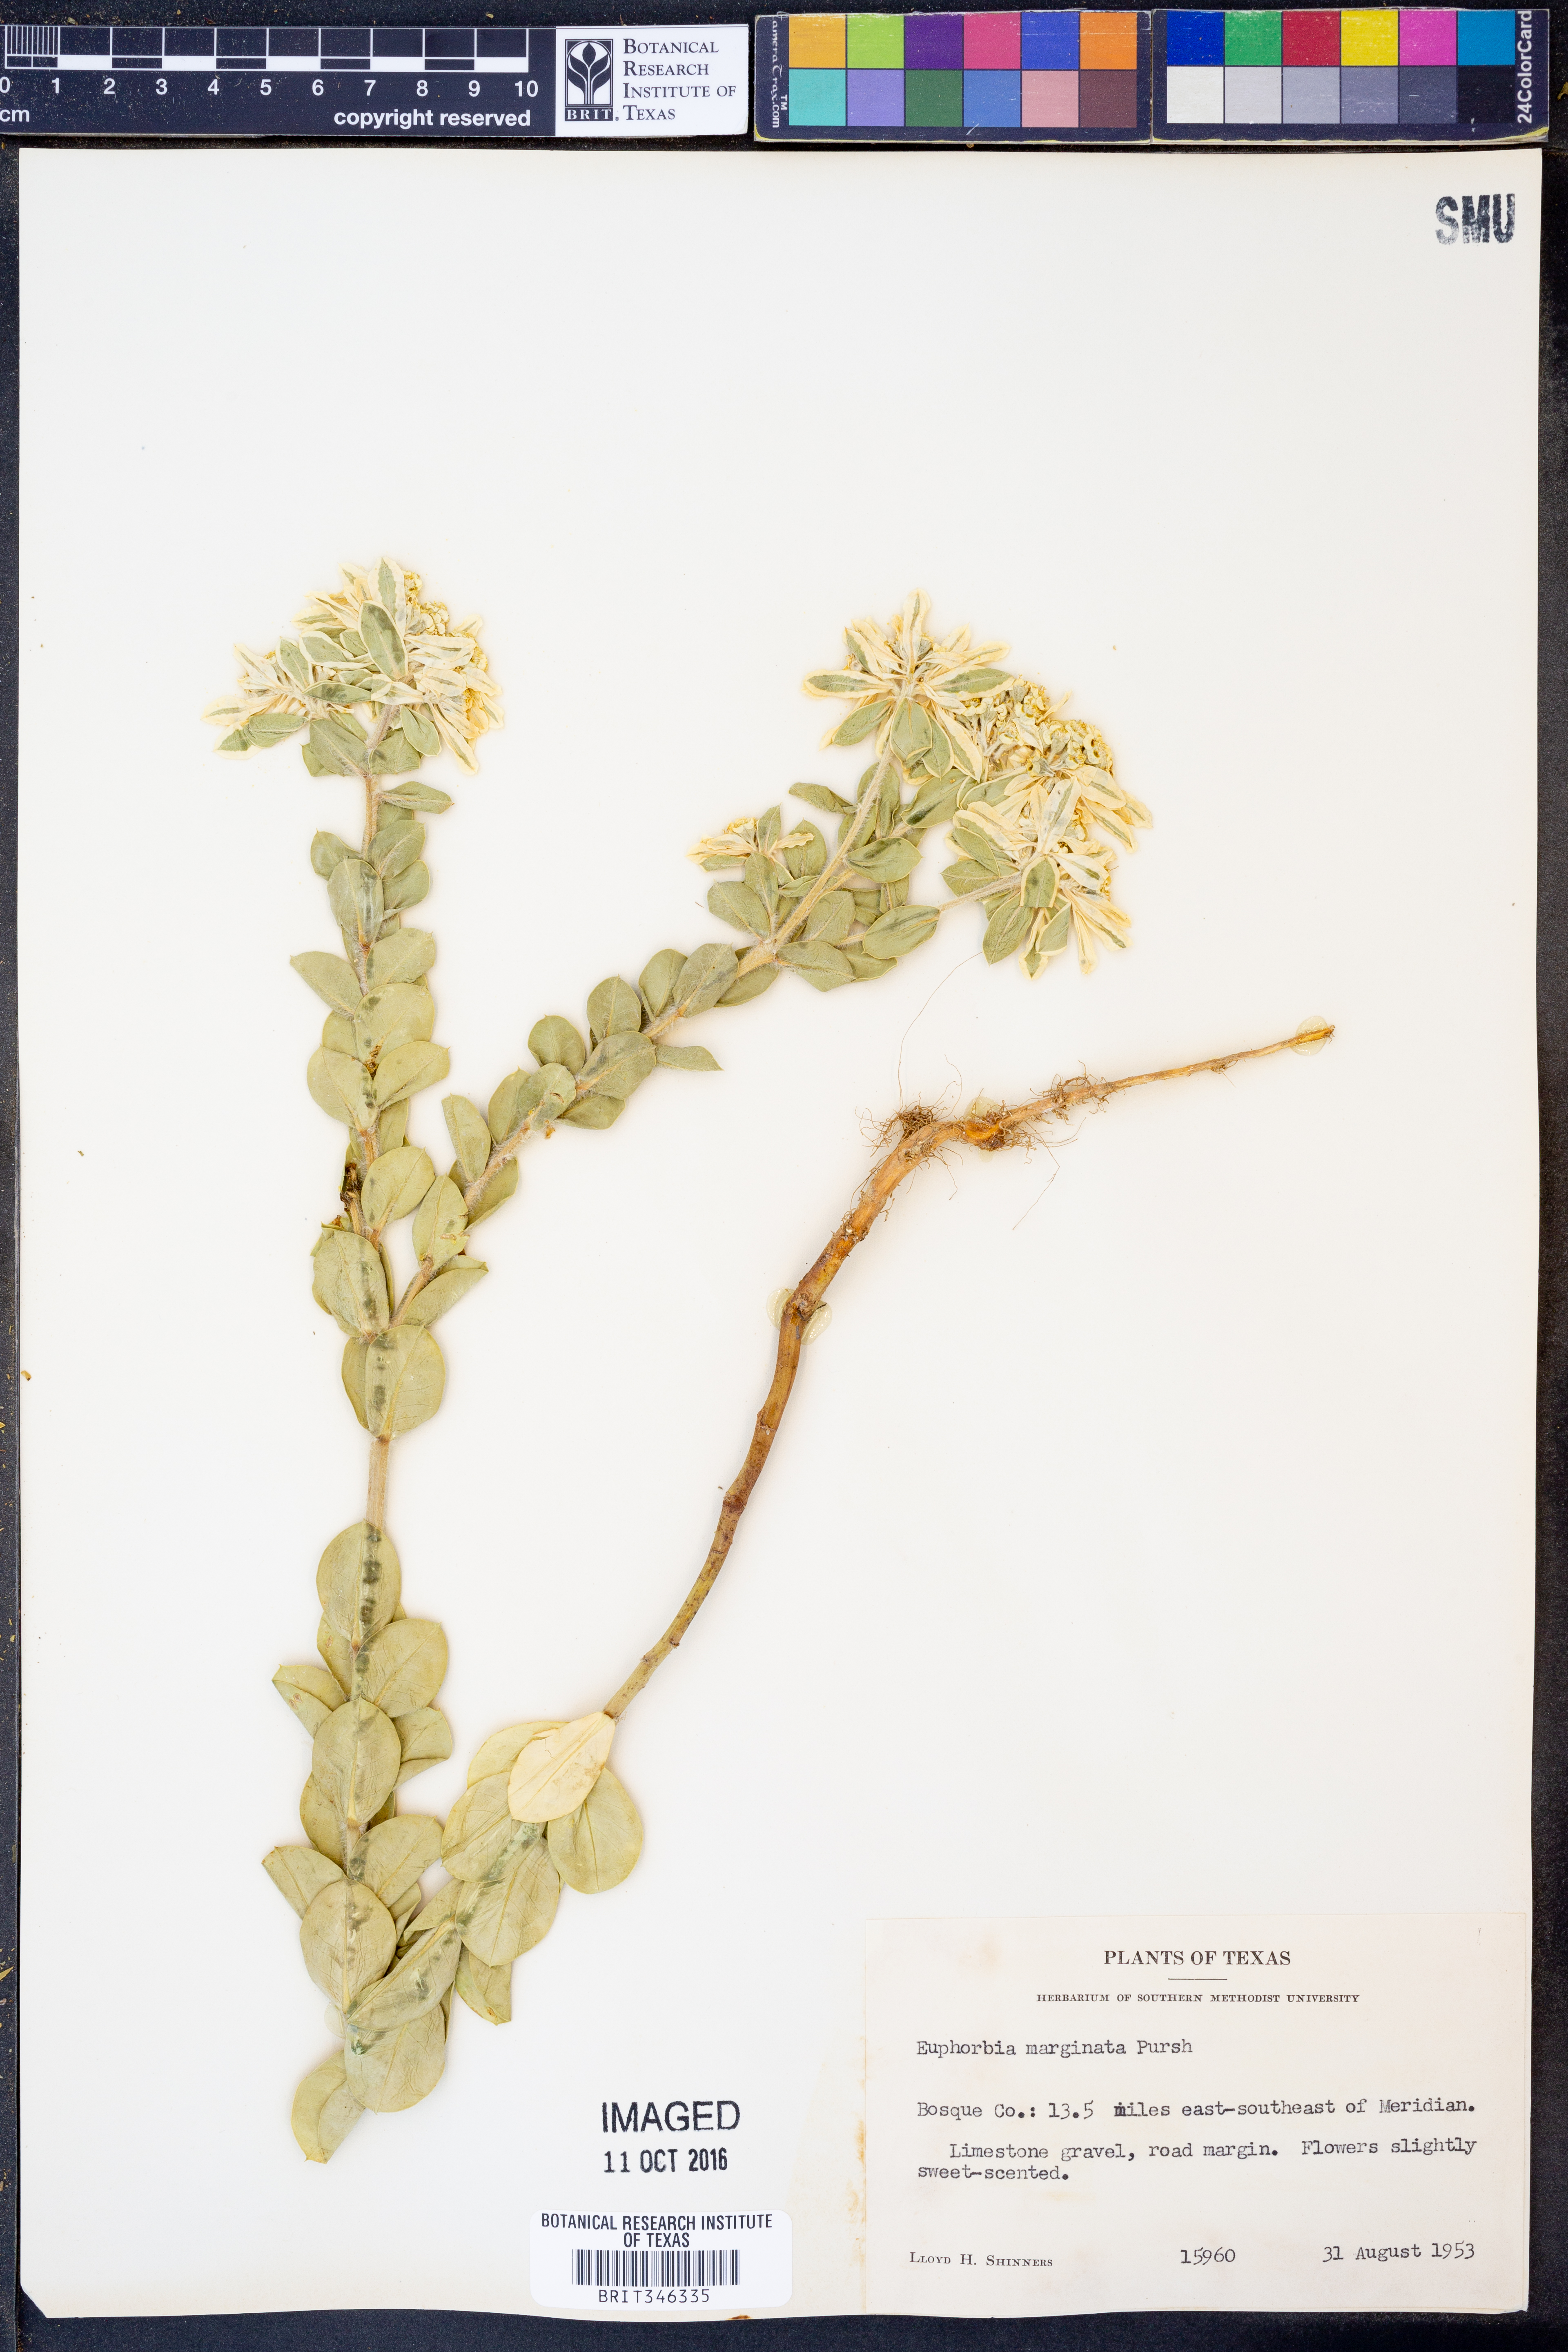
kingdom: Plantae
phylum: Tracheophyta
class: Magnoliopsida
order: Malpighiales
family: Euphorbiaceae
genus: Euphorbia
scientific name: Euphorbia marginata
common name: Ghostweed
